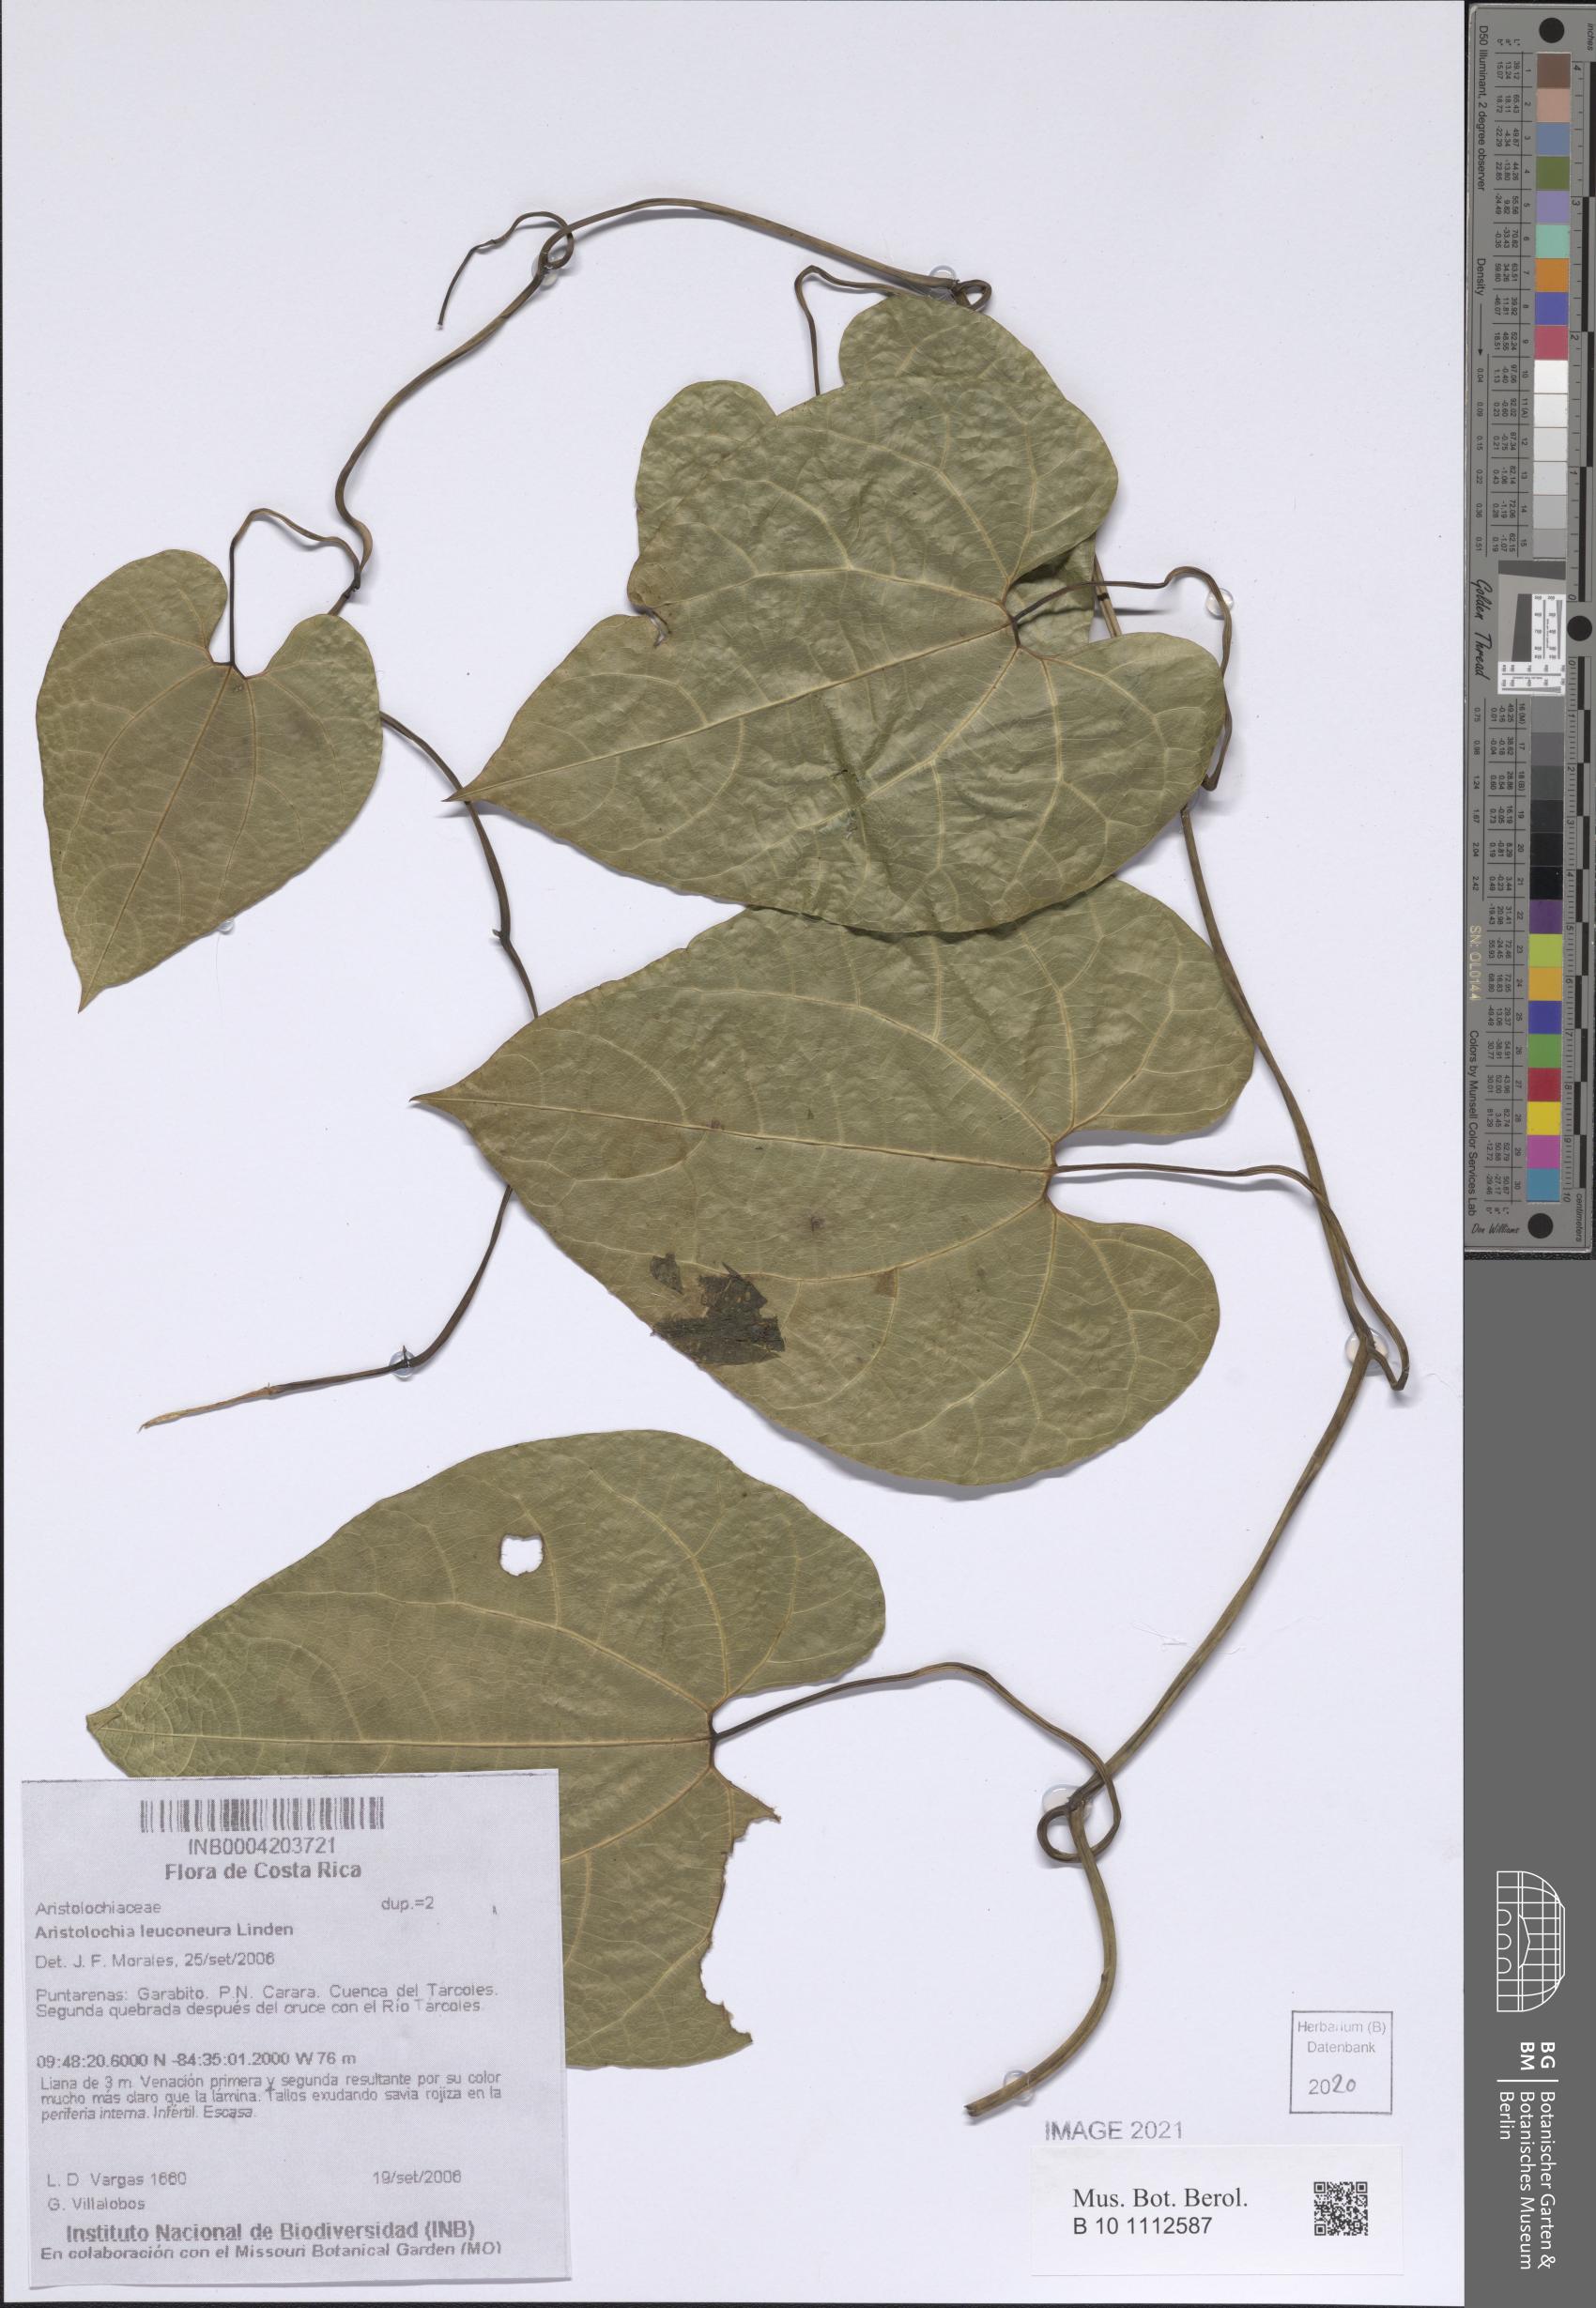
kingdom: Plantae
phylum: Tracheophyta
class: Magnoliopsida
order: Piperales
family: Aristolochiaceae
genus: Aristolochia
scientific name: Aristolochia leuconeura
